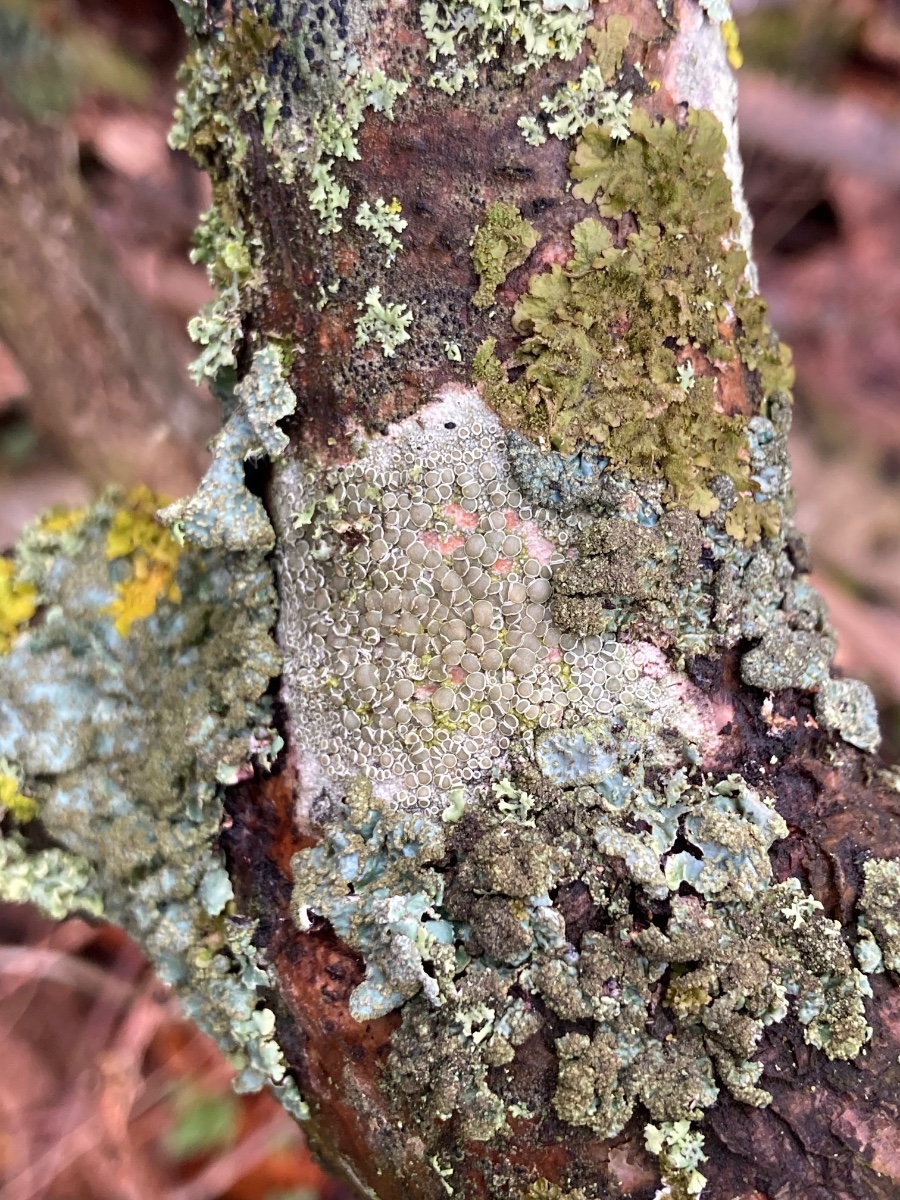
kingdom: Fungi
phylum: Ascomycota
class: Lecanoromycetes
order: Lecanorales
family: Lecanoraceae
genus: Lecanora
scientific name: Lecanora chlarotera
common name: brun kantskivelav
